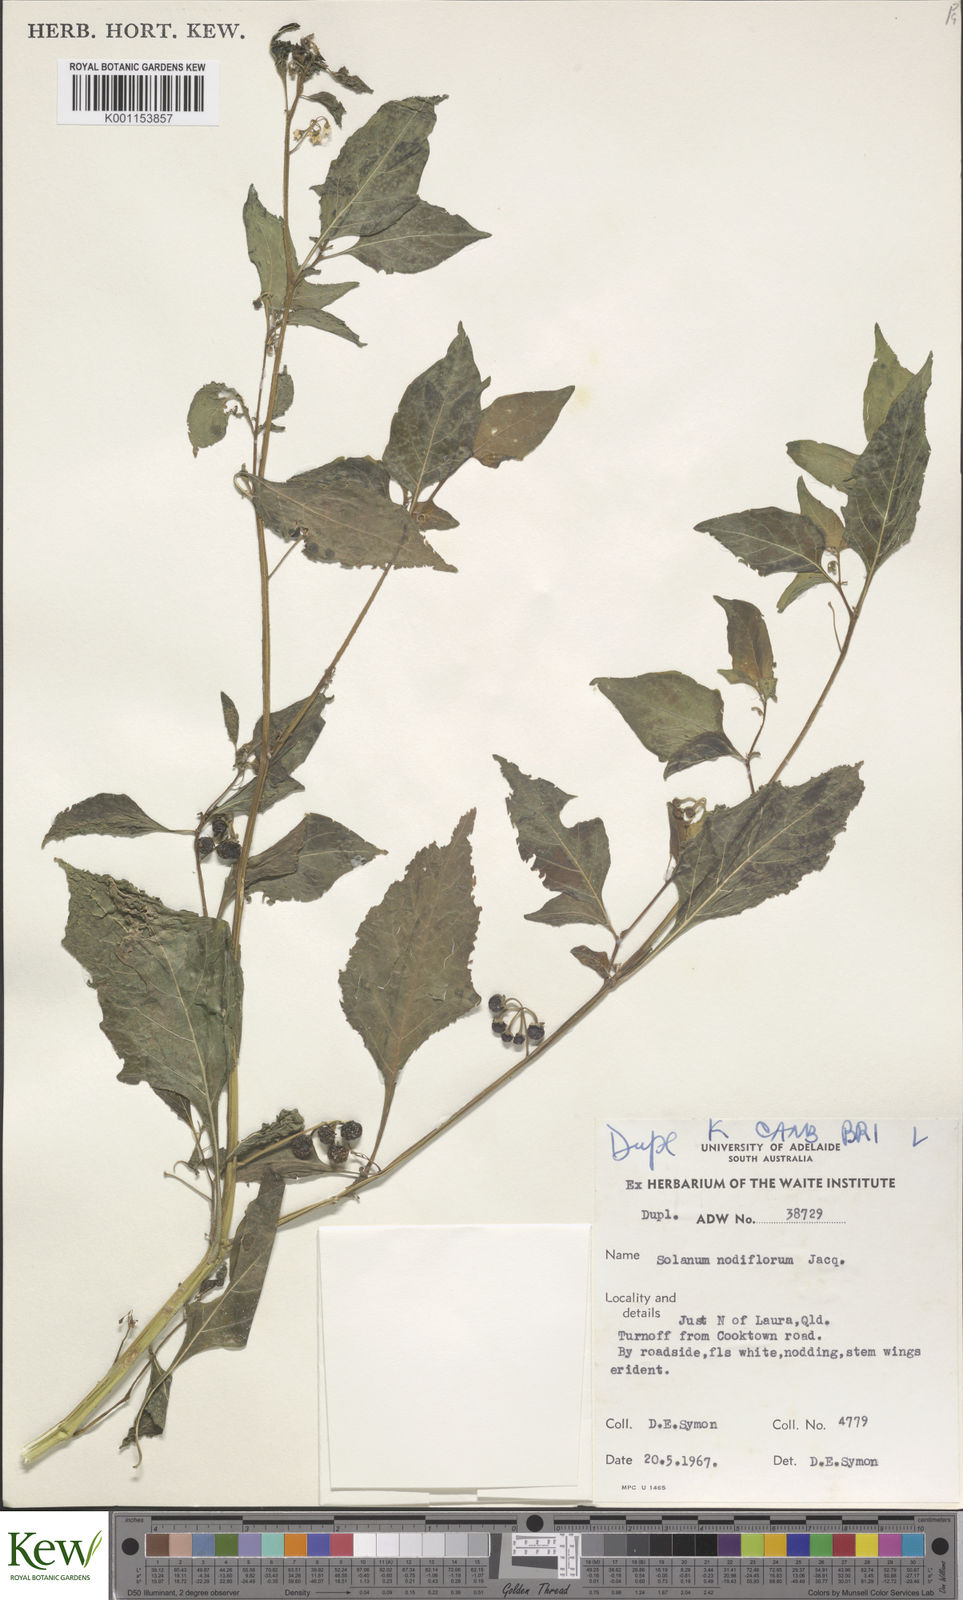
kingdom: Plantae
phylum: Tracheophyta
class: Magnoliopsida
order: Solanales
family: Solanaceae
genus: Solanum
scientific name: Solanum americanum
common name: American black nightshade
